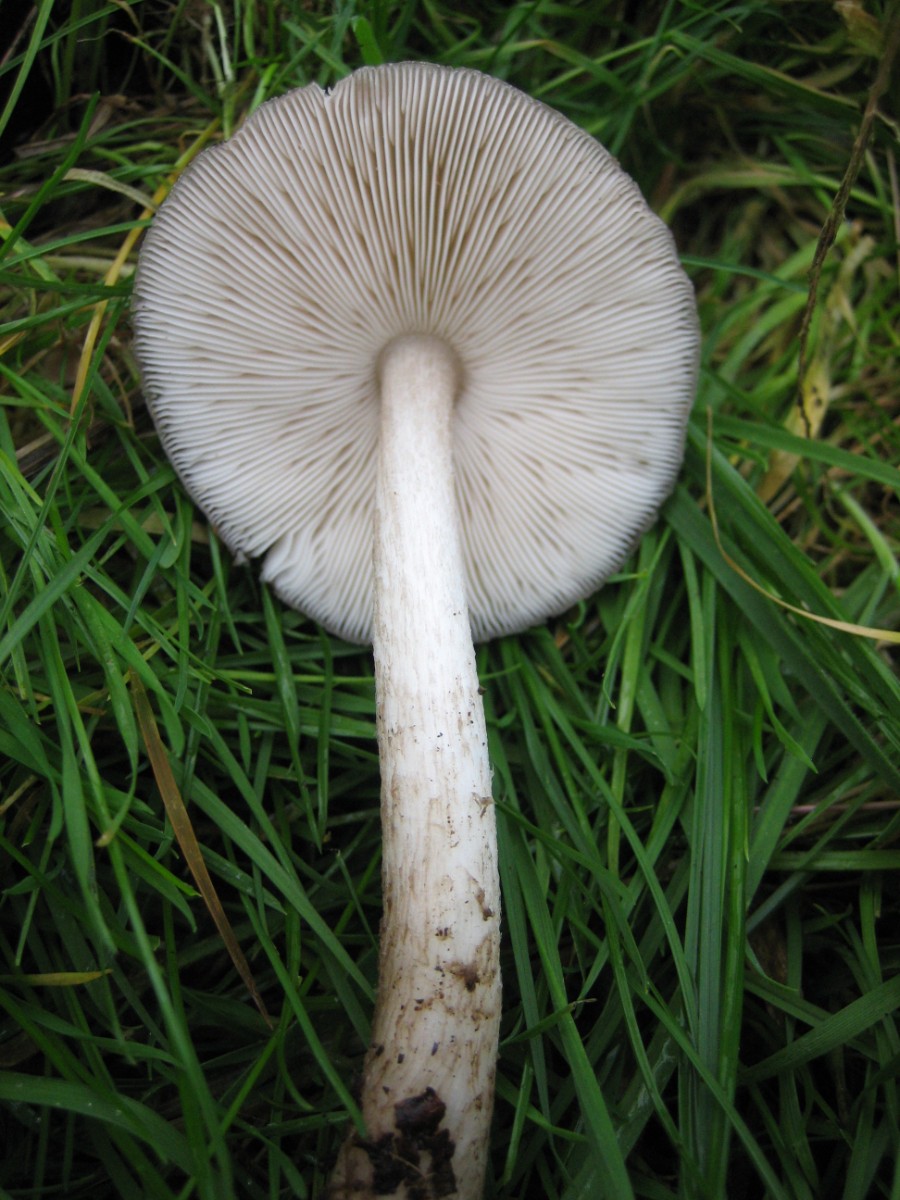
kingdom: Fungi
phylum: Basidiomycota
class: Agaricomycetes
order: Agaricales
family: Pluteaceae
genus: Pluteus
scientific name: Pluteus cervinus
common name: sodfarvet skærmhat
